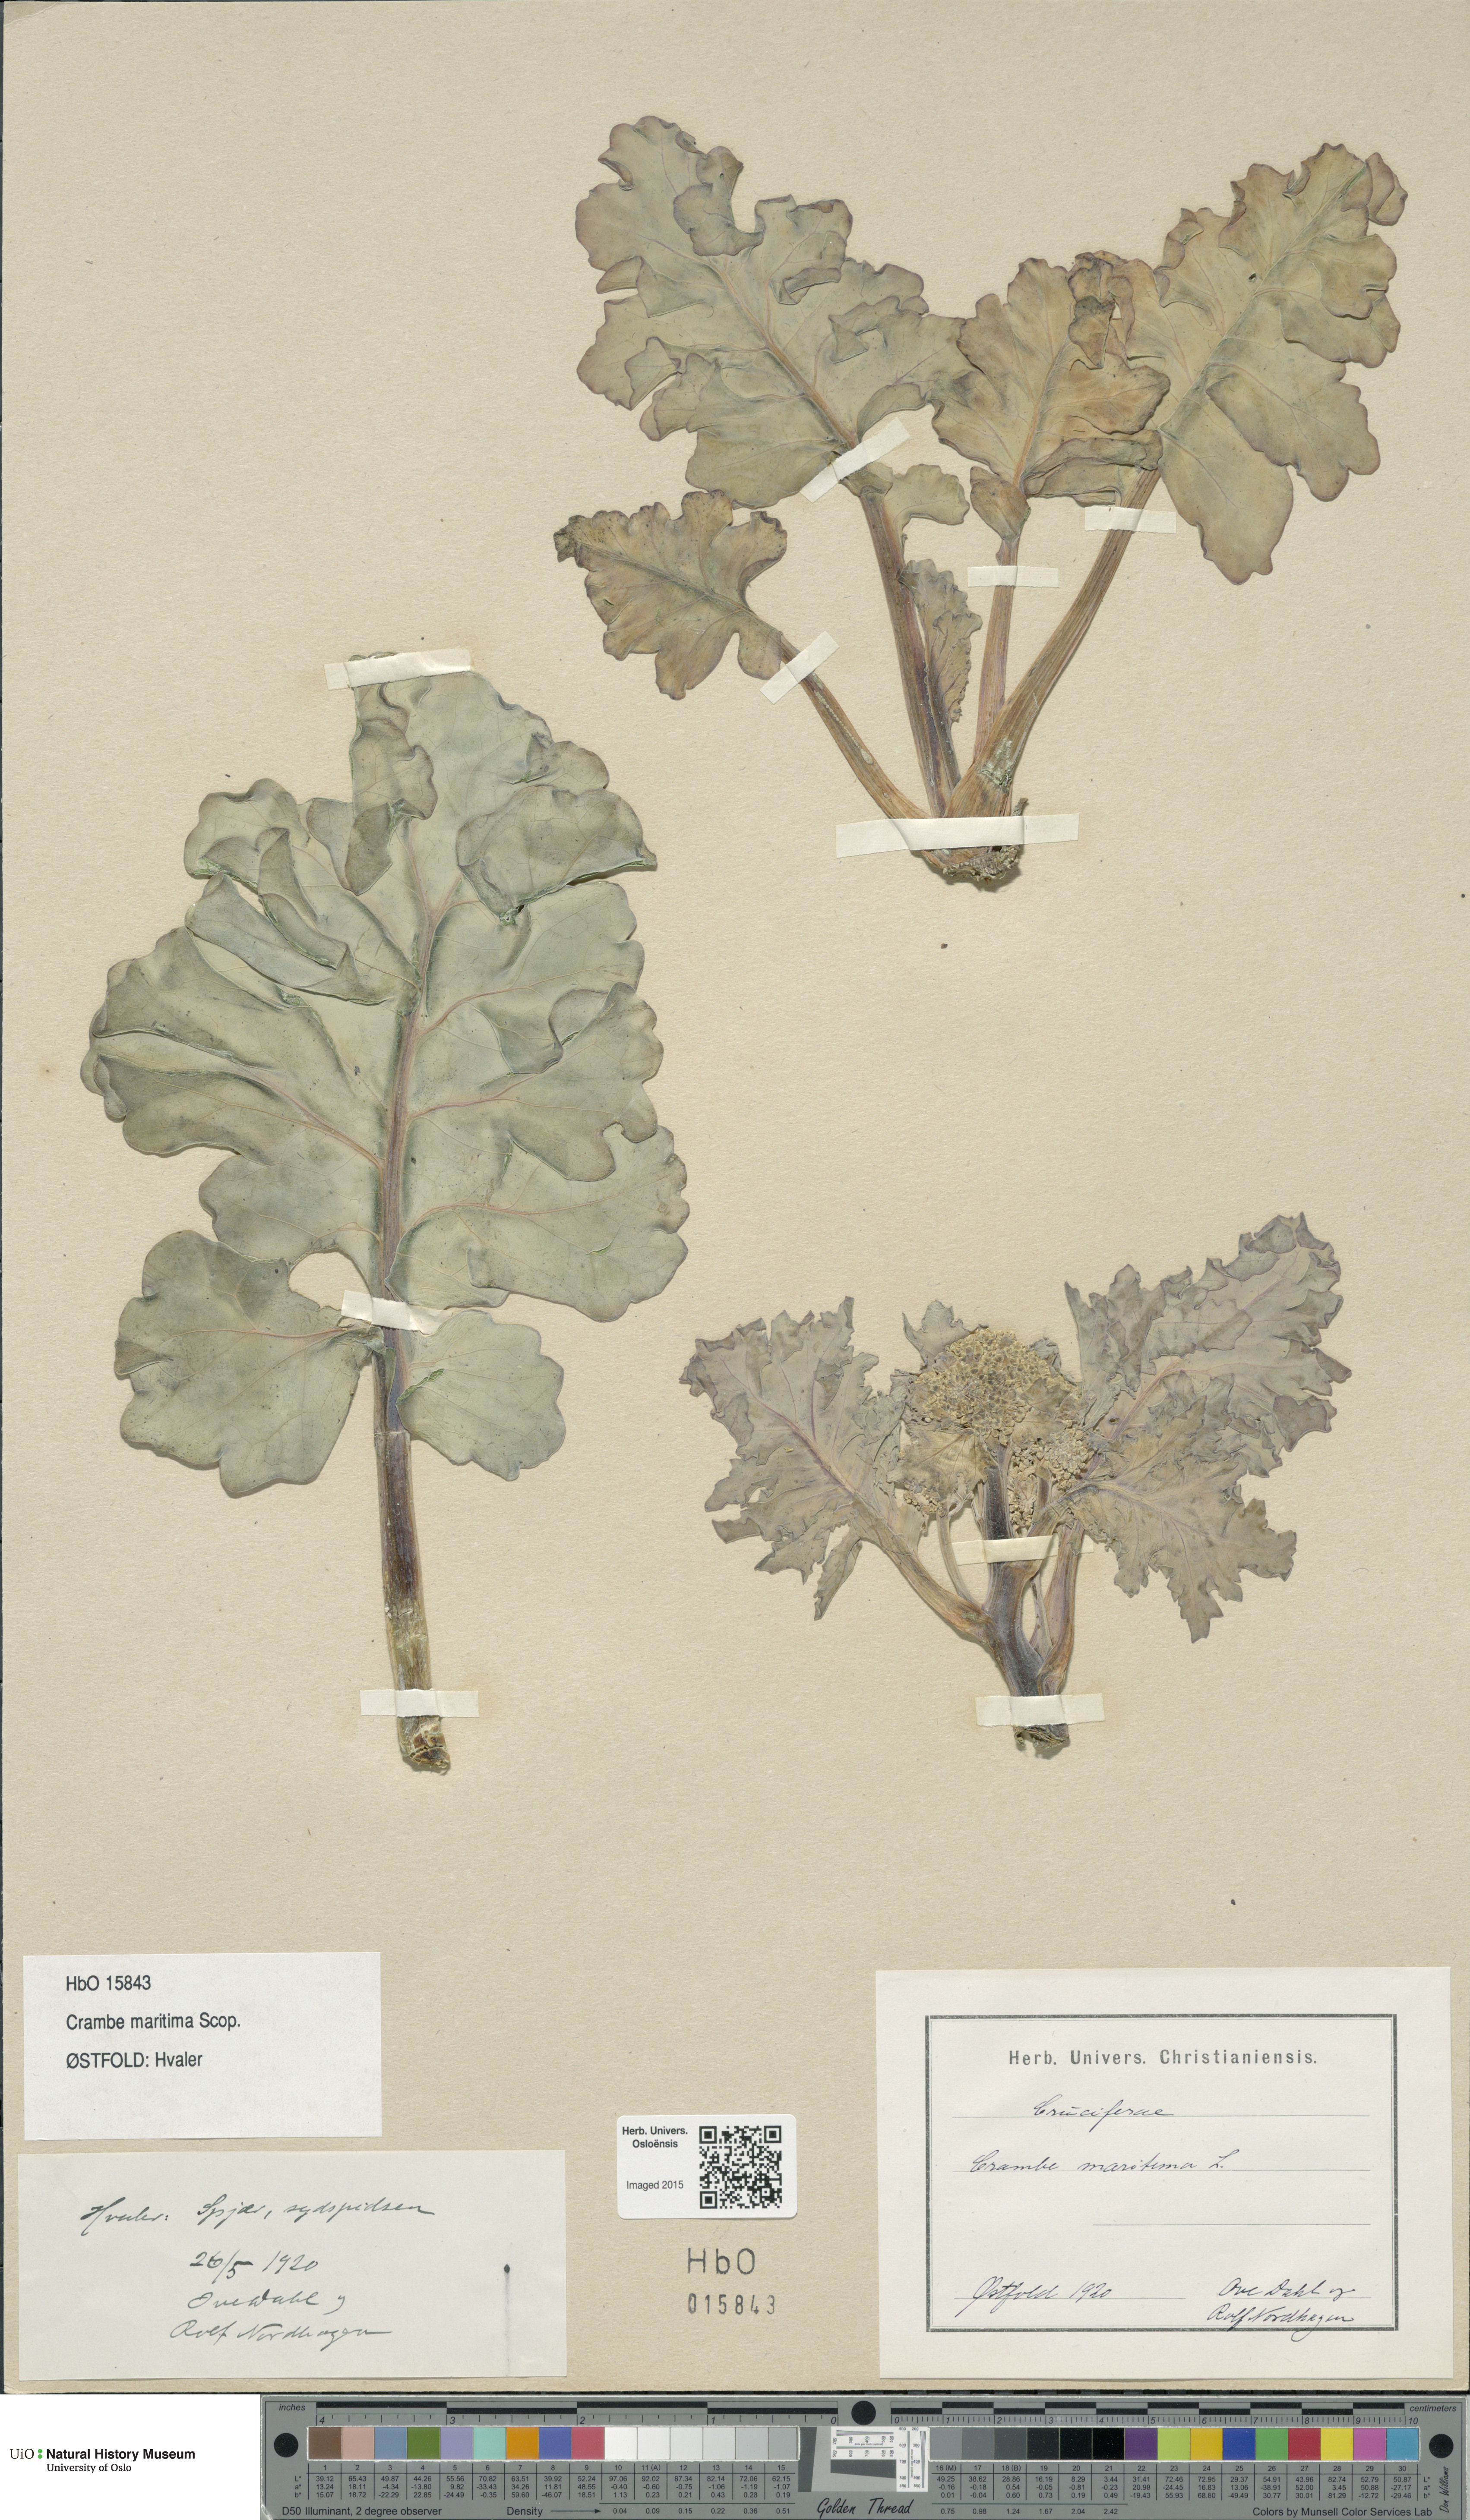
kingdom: Plantae
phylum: Tracheophyta
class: Magnoliopsida
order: Brassicales
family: Brassicaceae
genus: Crambe
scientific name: Crambe maritima
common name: Sea-kale
